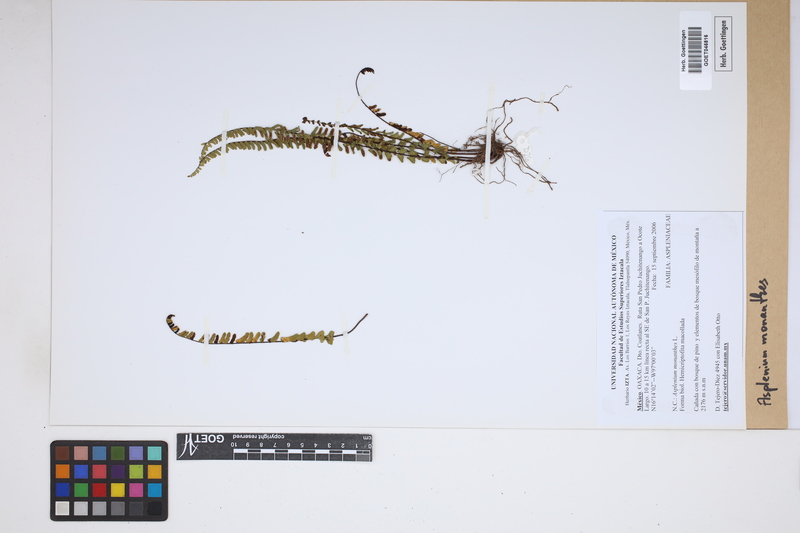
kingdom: Plantae
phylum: Tracheophyta
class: Polypodiopsida
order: Polypodiales
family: Aspleniaceae
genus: Asplenium
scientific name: Asplenium monanthes
